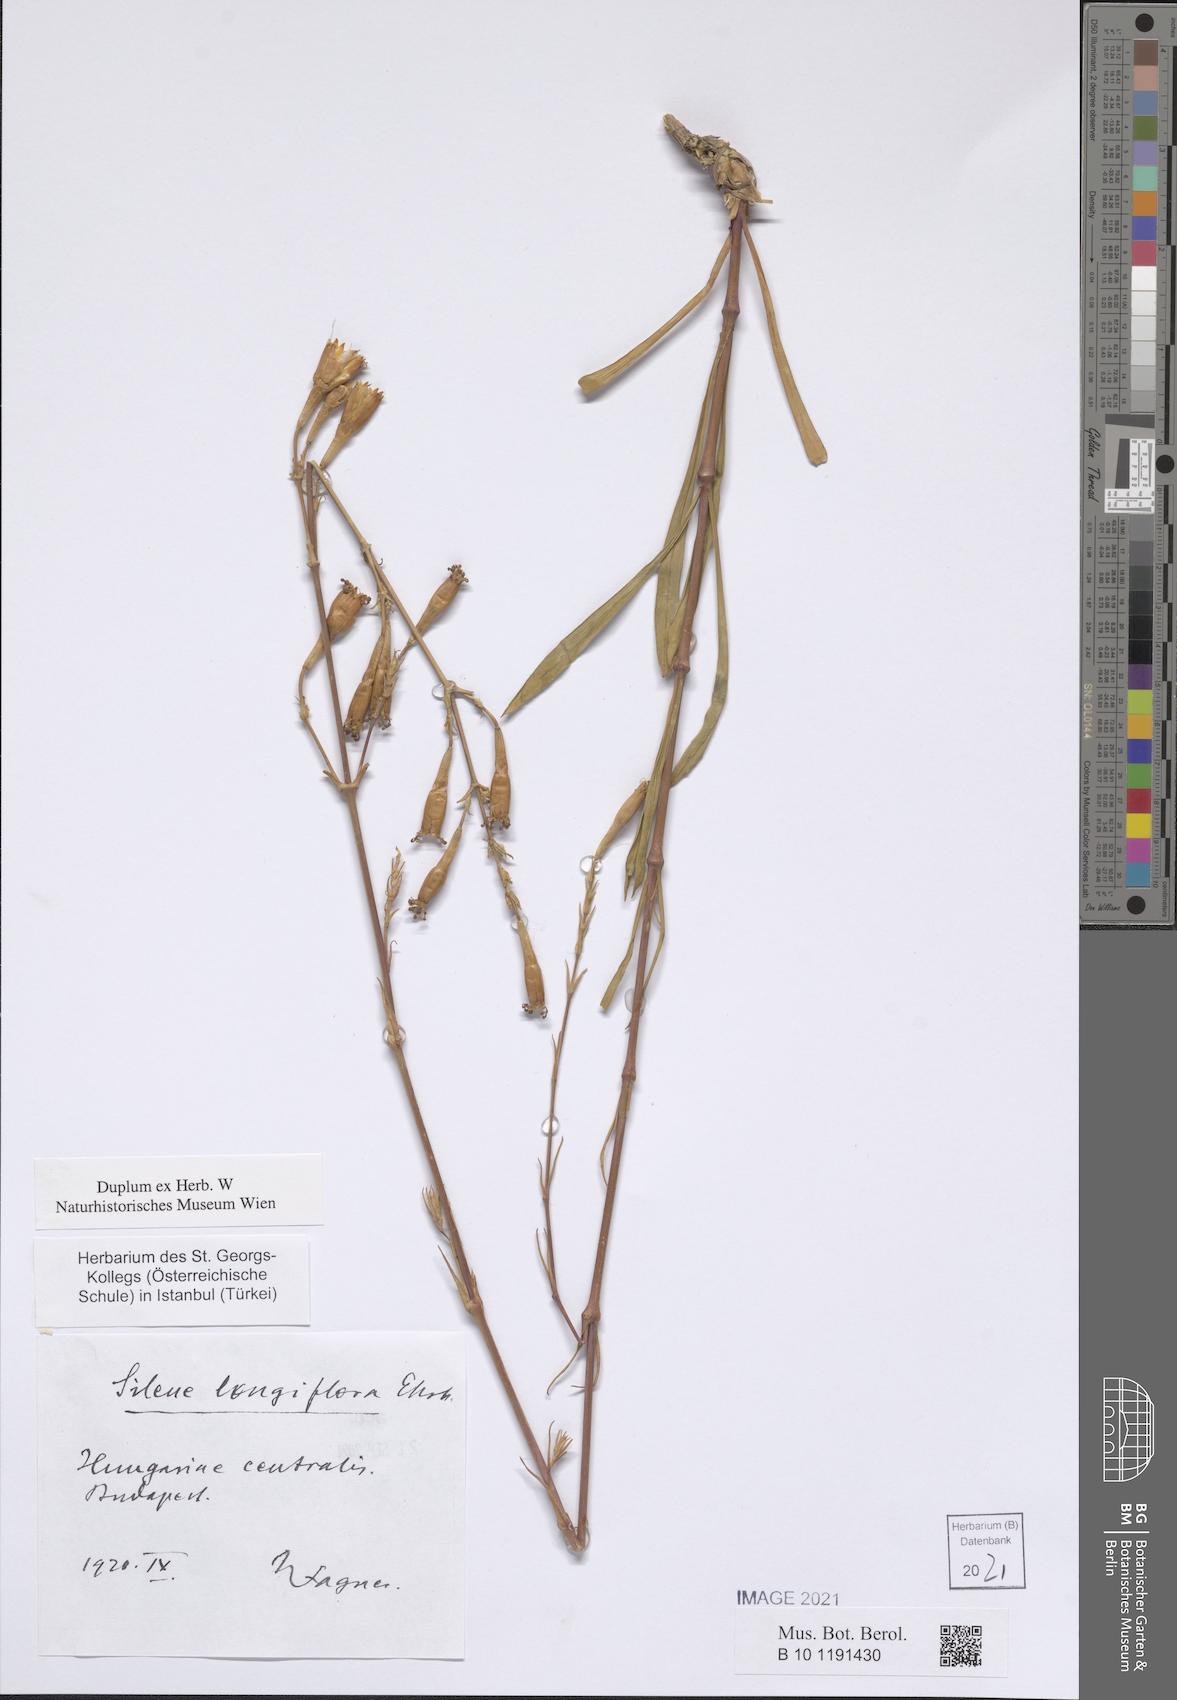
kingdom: Plantae
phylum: Tracheophyta
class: Magnoliopsida
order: Caryophyllales
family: Caryophyllaceae
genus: Silene
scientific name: Silene bupleuroides
